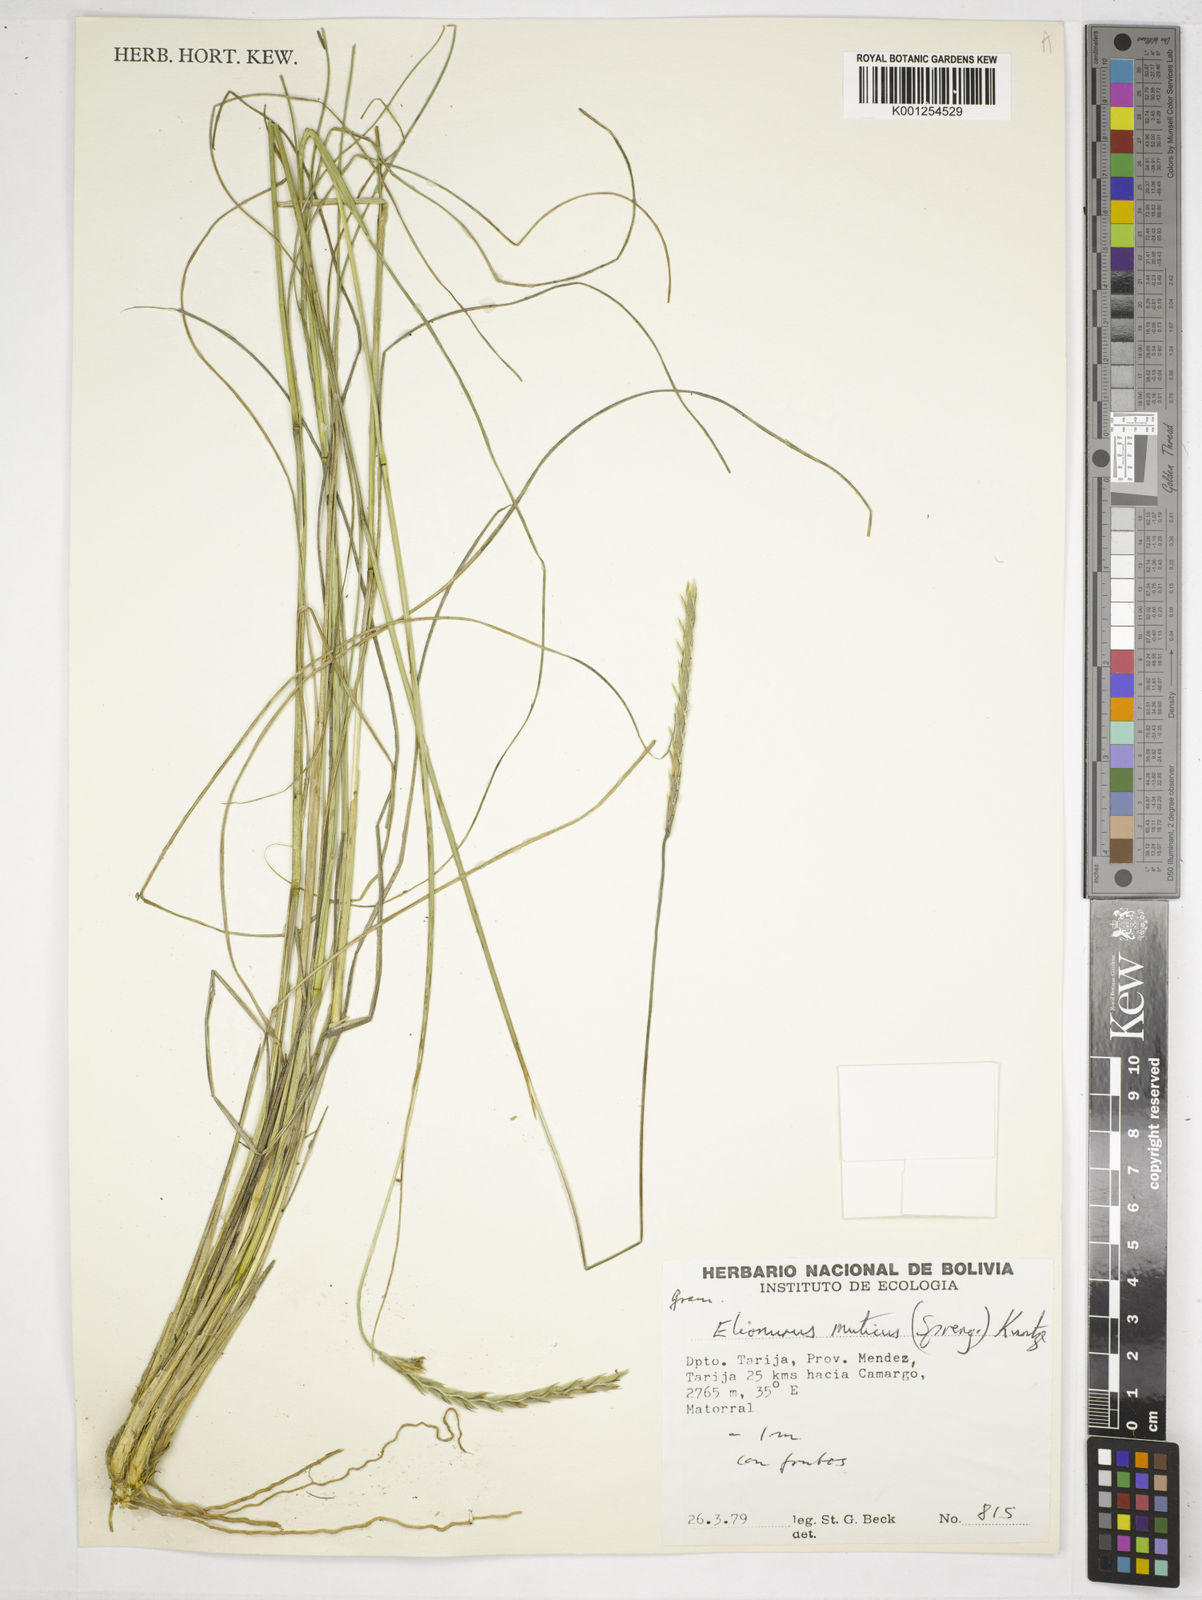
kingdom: Plantae
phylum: Tracheophyta
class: Liliopsida
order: Poales
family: Poaceae
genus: Elionurus
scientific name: Elionurus muticus
